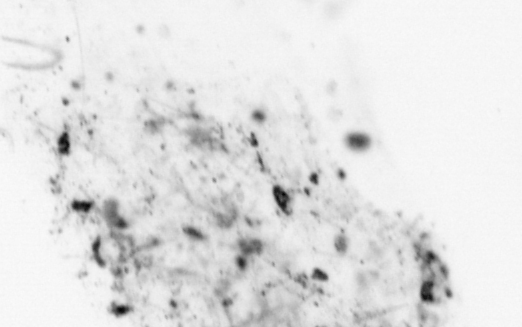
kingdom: Animalia
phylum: Chordata
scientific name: Chordata
